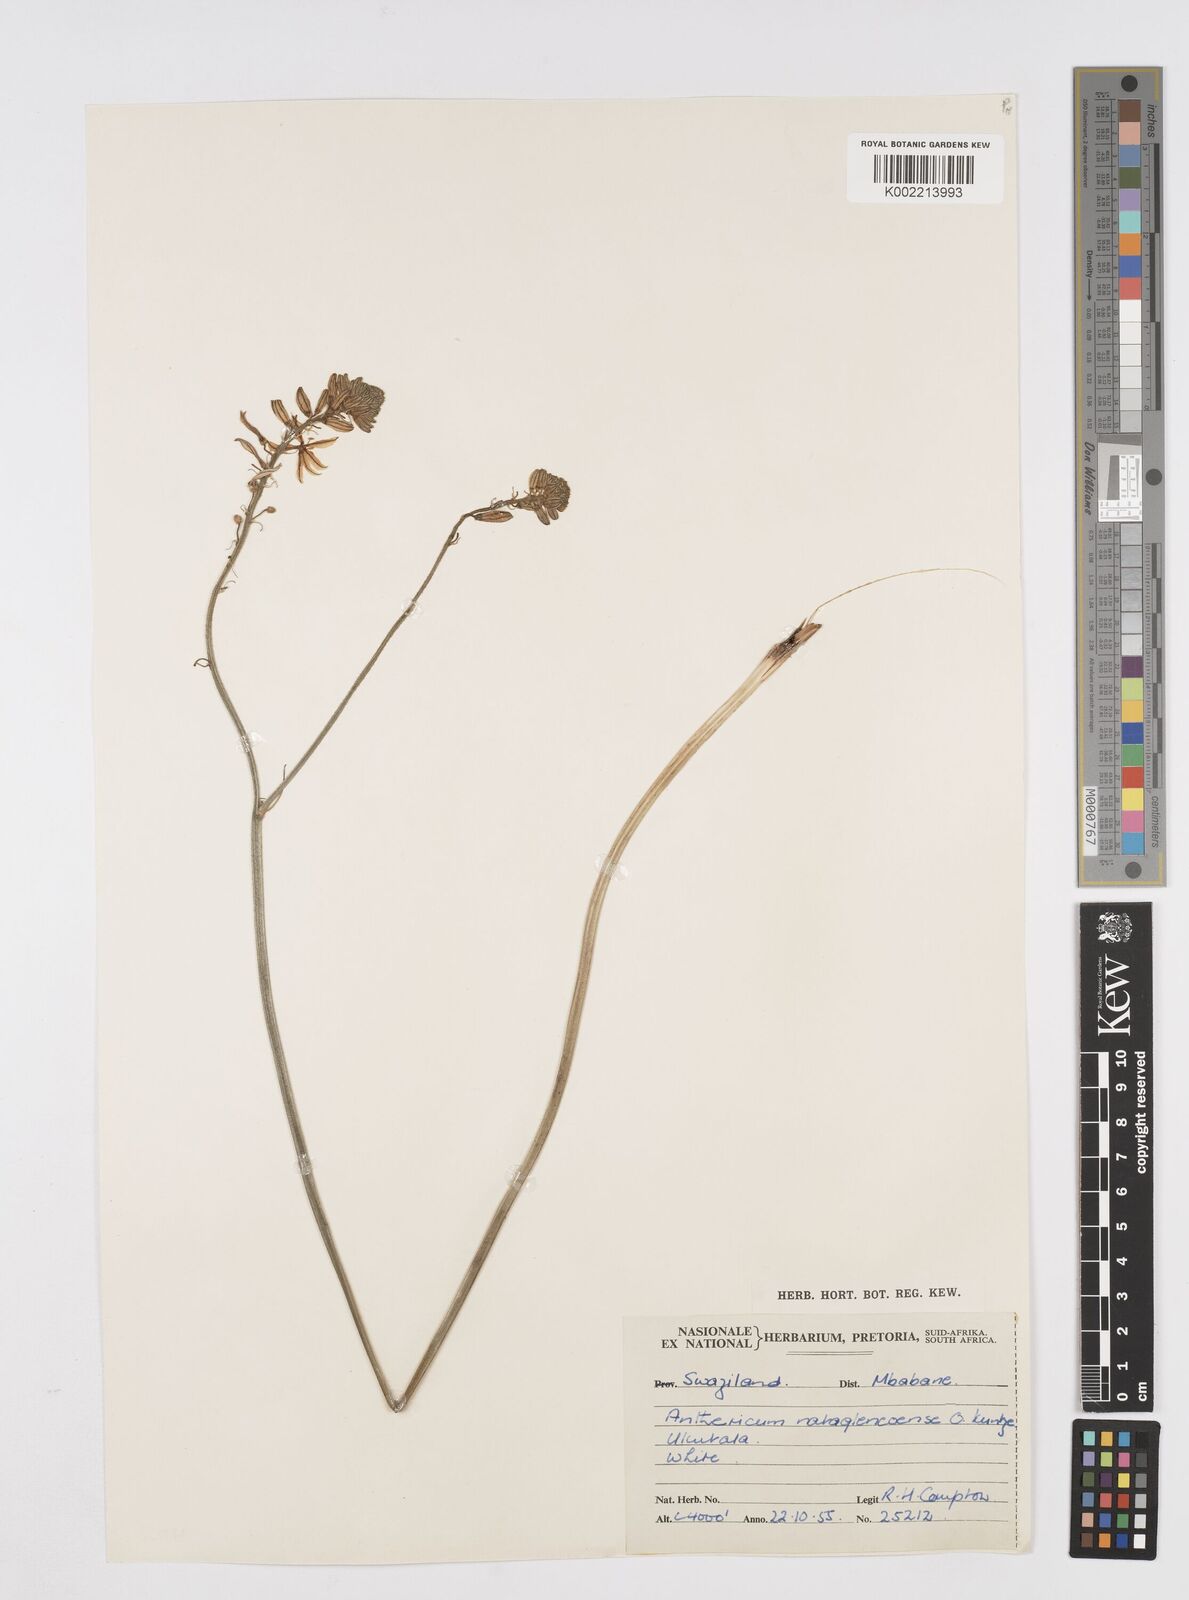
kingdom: Plantae
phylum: Tracheophyta
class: Liliopsida
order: Asparagales
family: Asphodelaceae
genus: Trachyandra
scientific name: Trachyandra asperata
